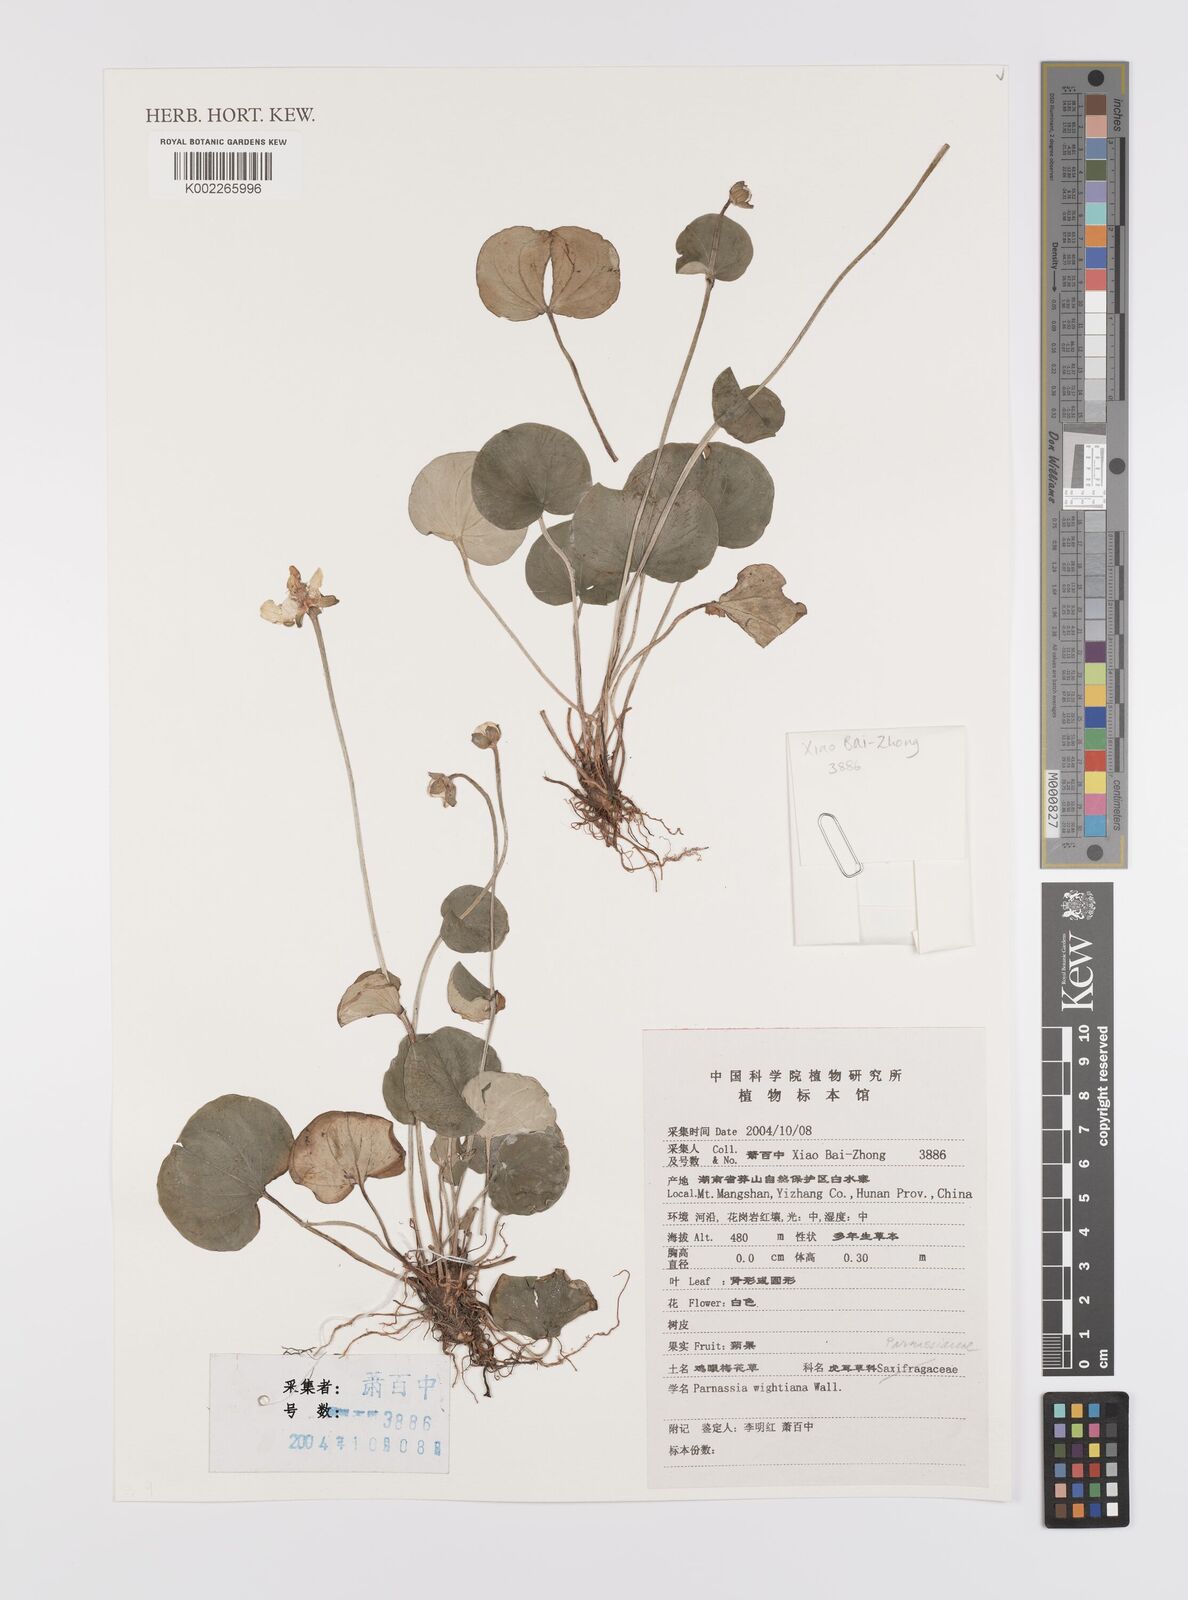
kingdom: Plantae
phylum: Tracheophyta
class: Magnoliopsida
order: Celastrales
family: Parnassiaceae
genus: Parnassia
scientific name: Parnassia wightiana
